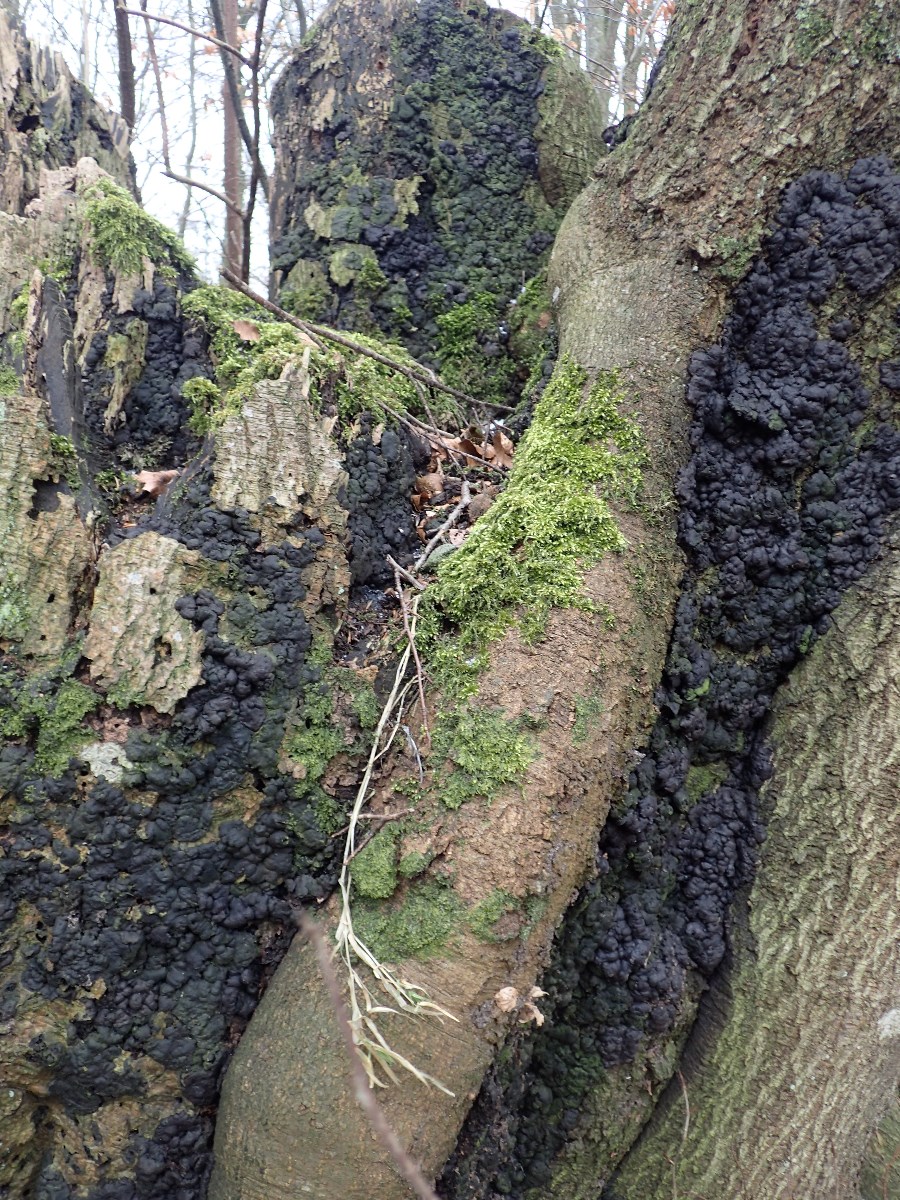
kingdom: Fungi
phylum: Ascomycota
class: Sordariomycetes
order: Xylariales
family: Xylariaceae
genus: Kretzschmaria
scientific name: Kretzschmaria deusta
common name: stor kulsvamp
